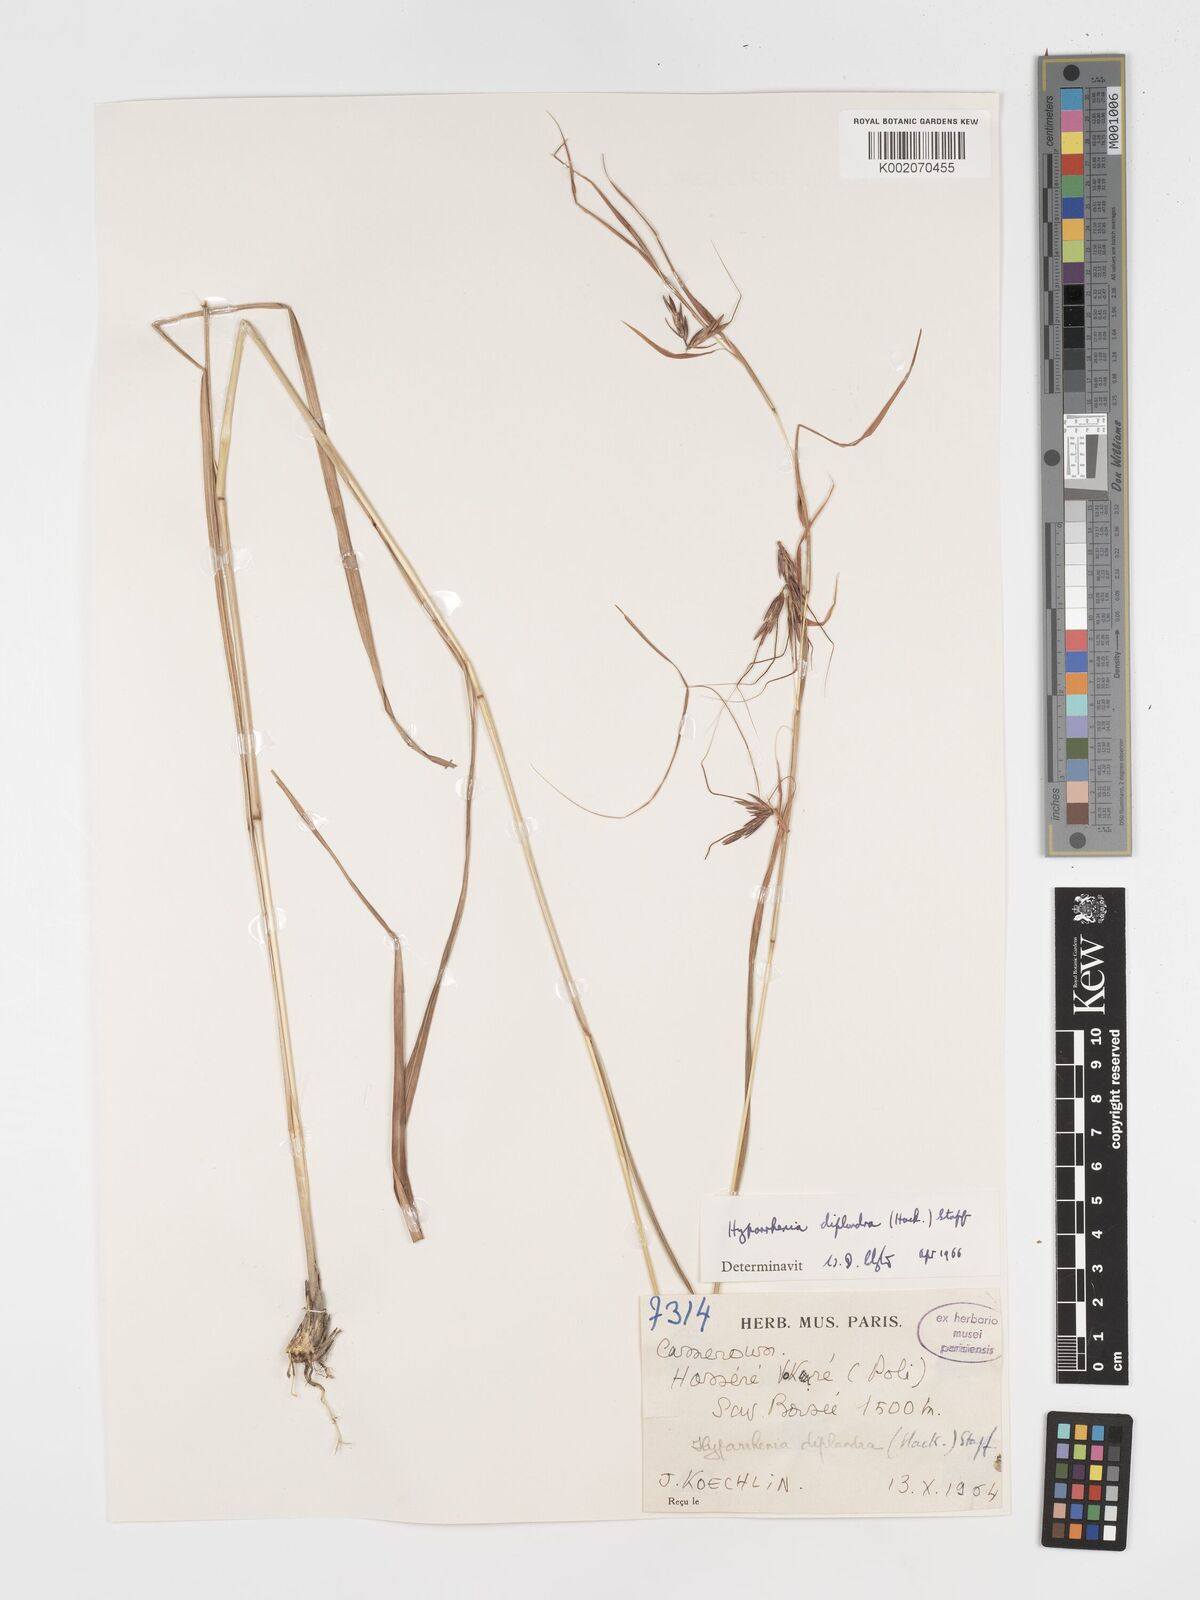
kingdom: Plantae
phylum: Tracheophyta
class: Liliopsida
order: Poales
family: Poaceae
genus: Hyparrhenia
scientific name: Hyparrhenia diplandra
